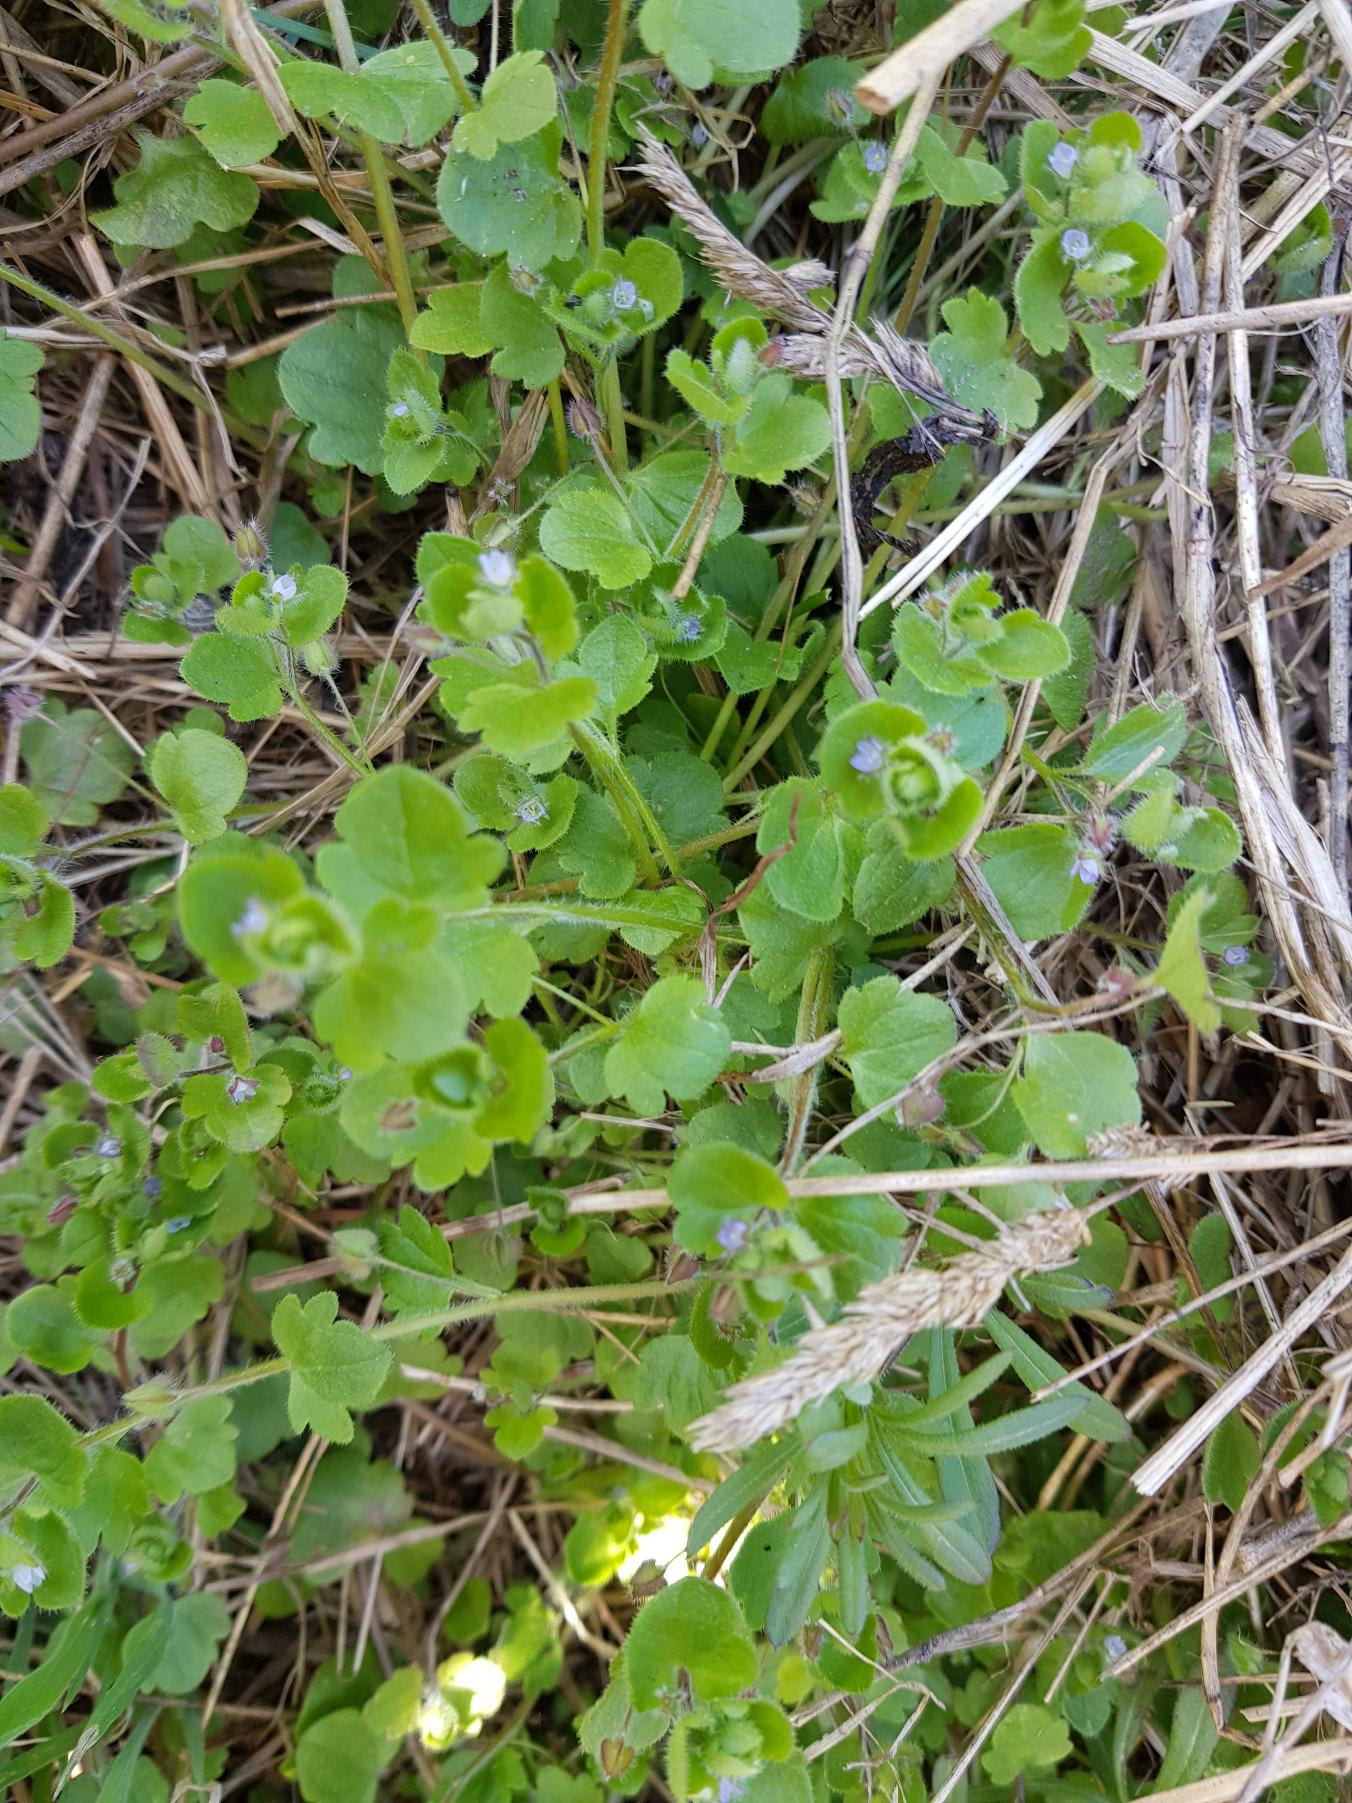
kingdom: Plantae
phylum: Tracheophyta
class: Magnoliopsida
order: Lamiales
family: Plantaginaceae
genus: Veronica
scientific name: Veronica sublobata
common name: Krat-ærenpris
